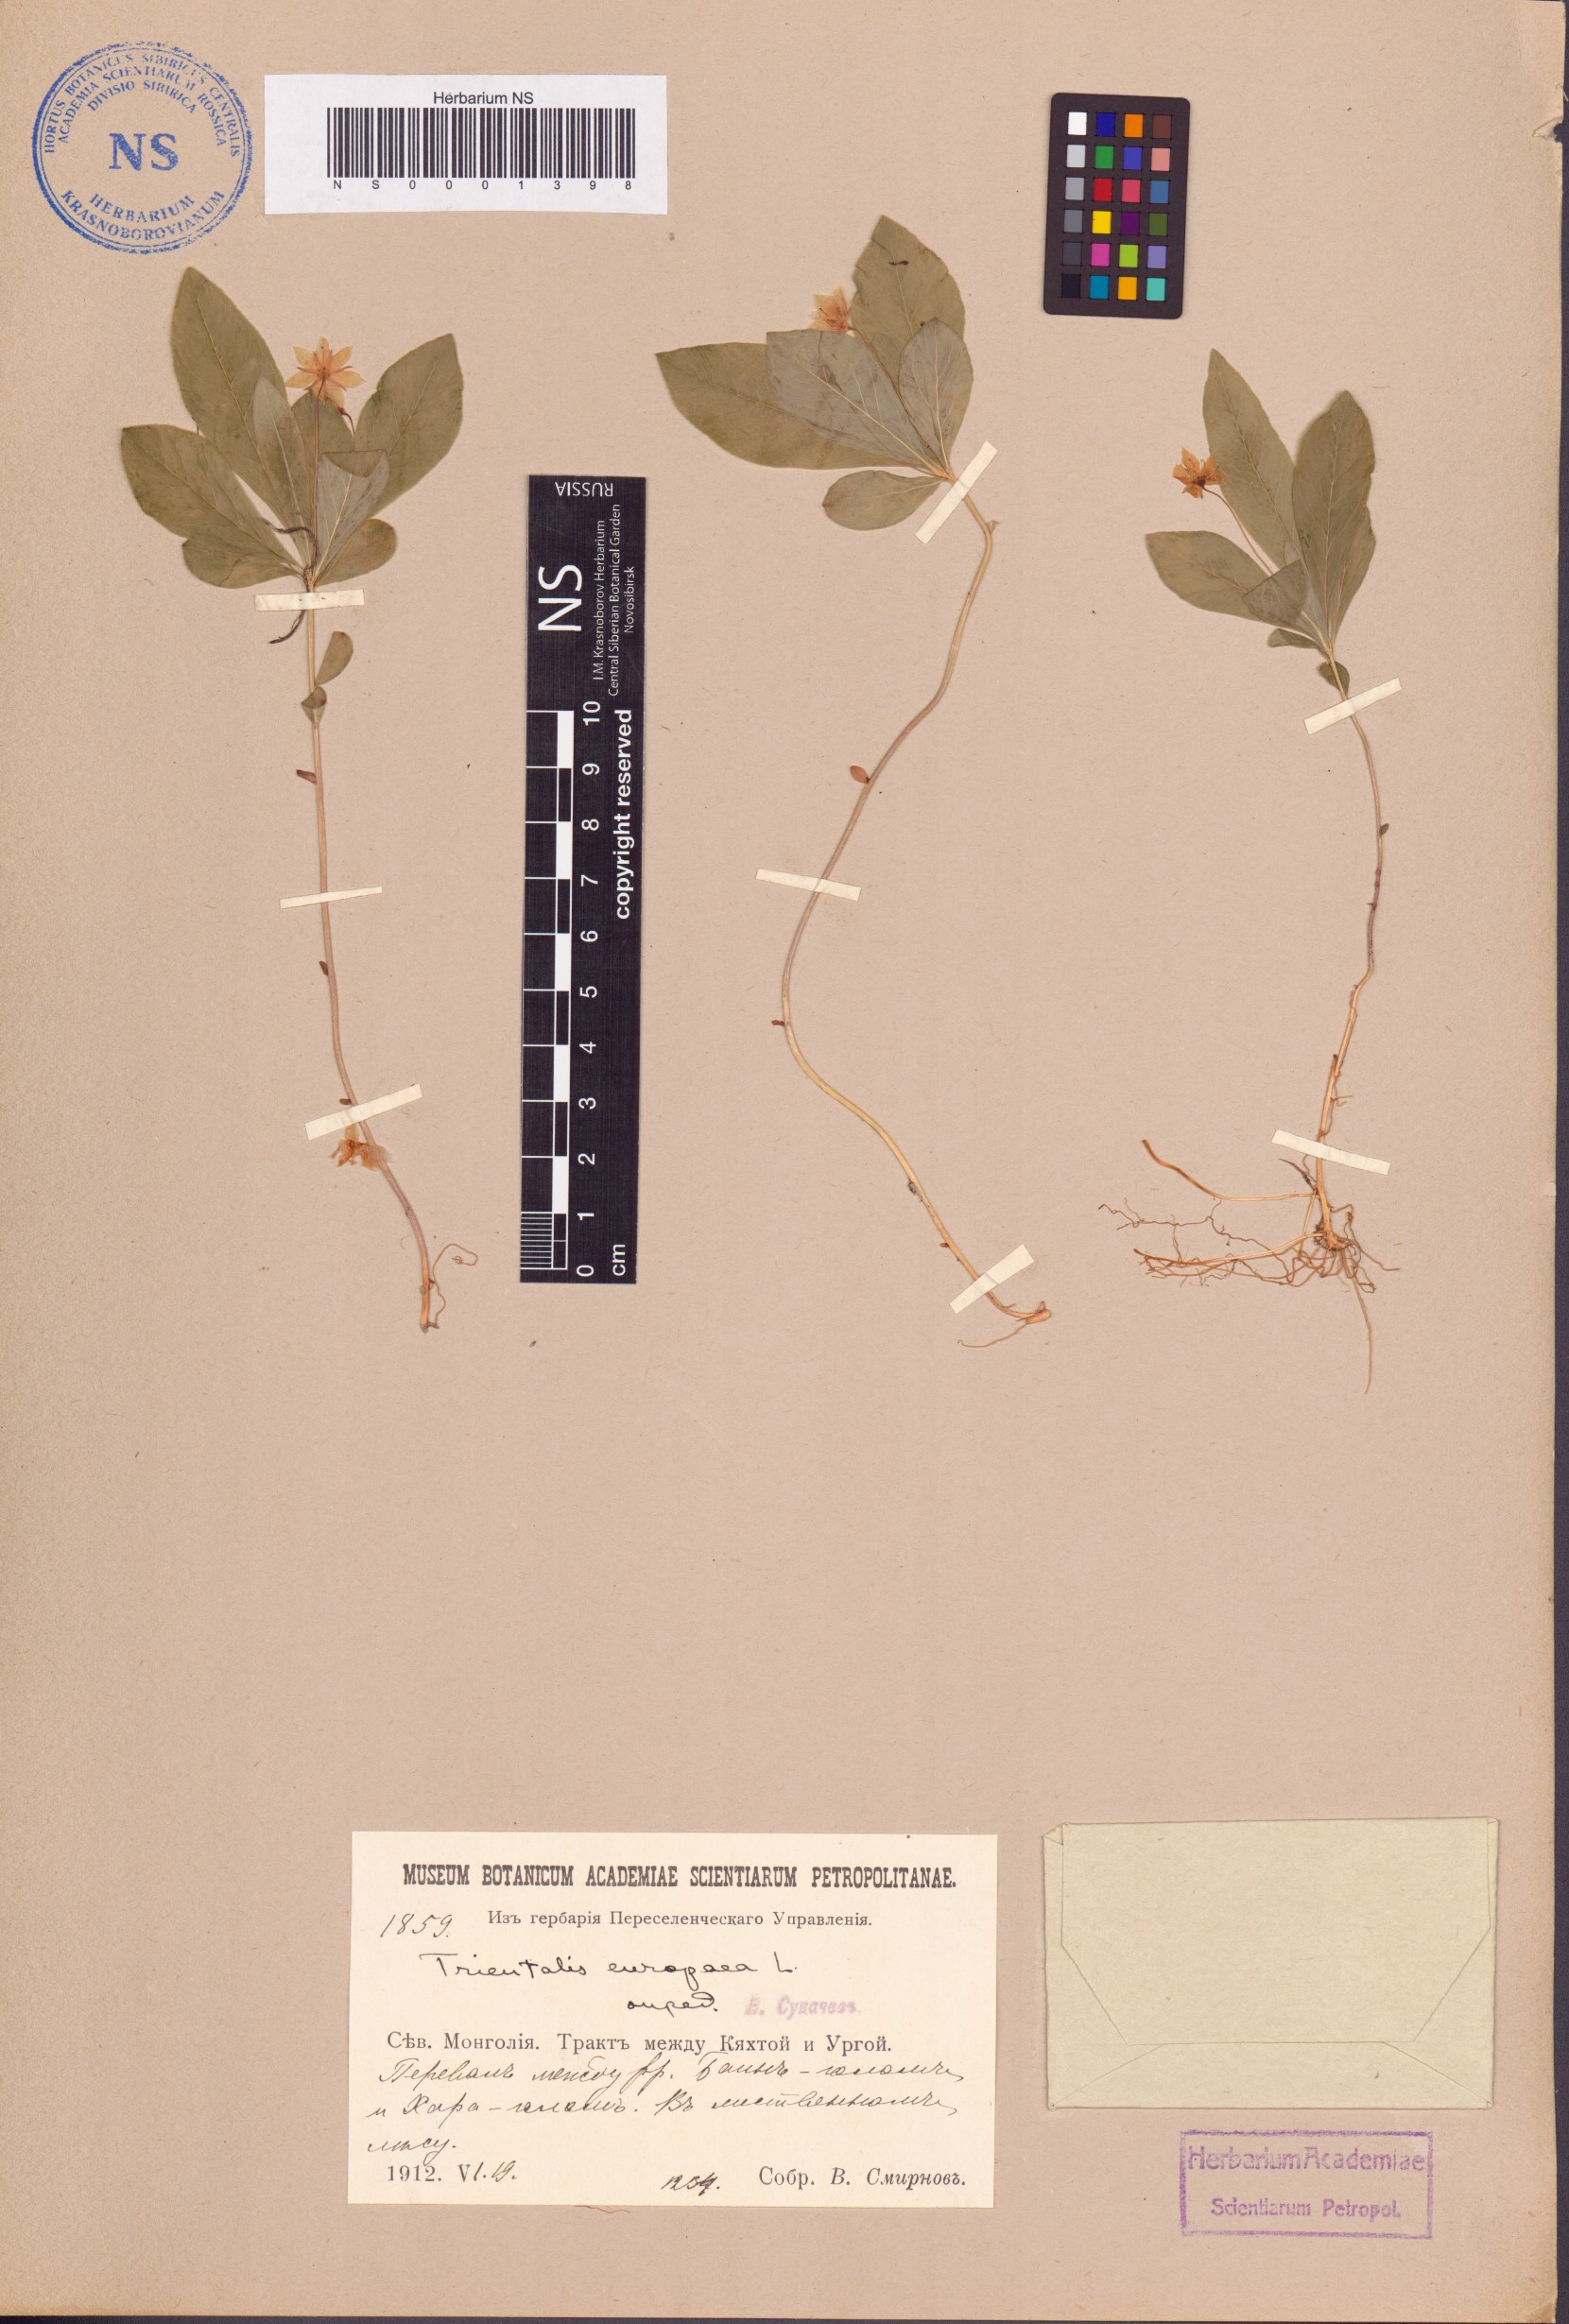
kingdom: Plantae
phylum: Tracheophyta
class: Magnoliopsida
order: Ericales
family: Primulaceae
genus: Lysimachia
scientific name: Lysimachia europaea
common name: Arctic starflower
